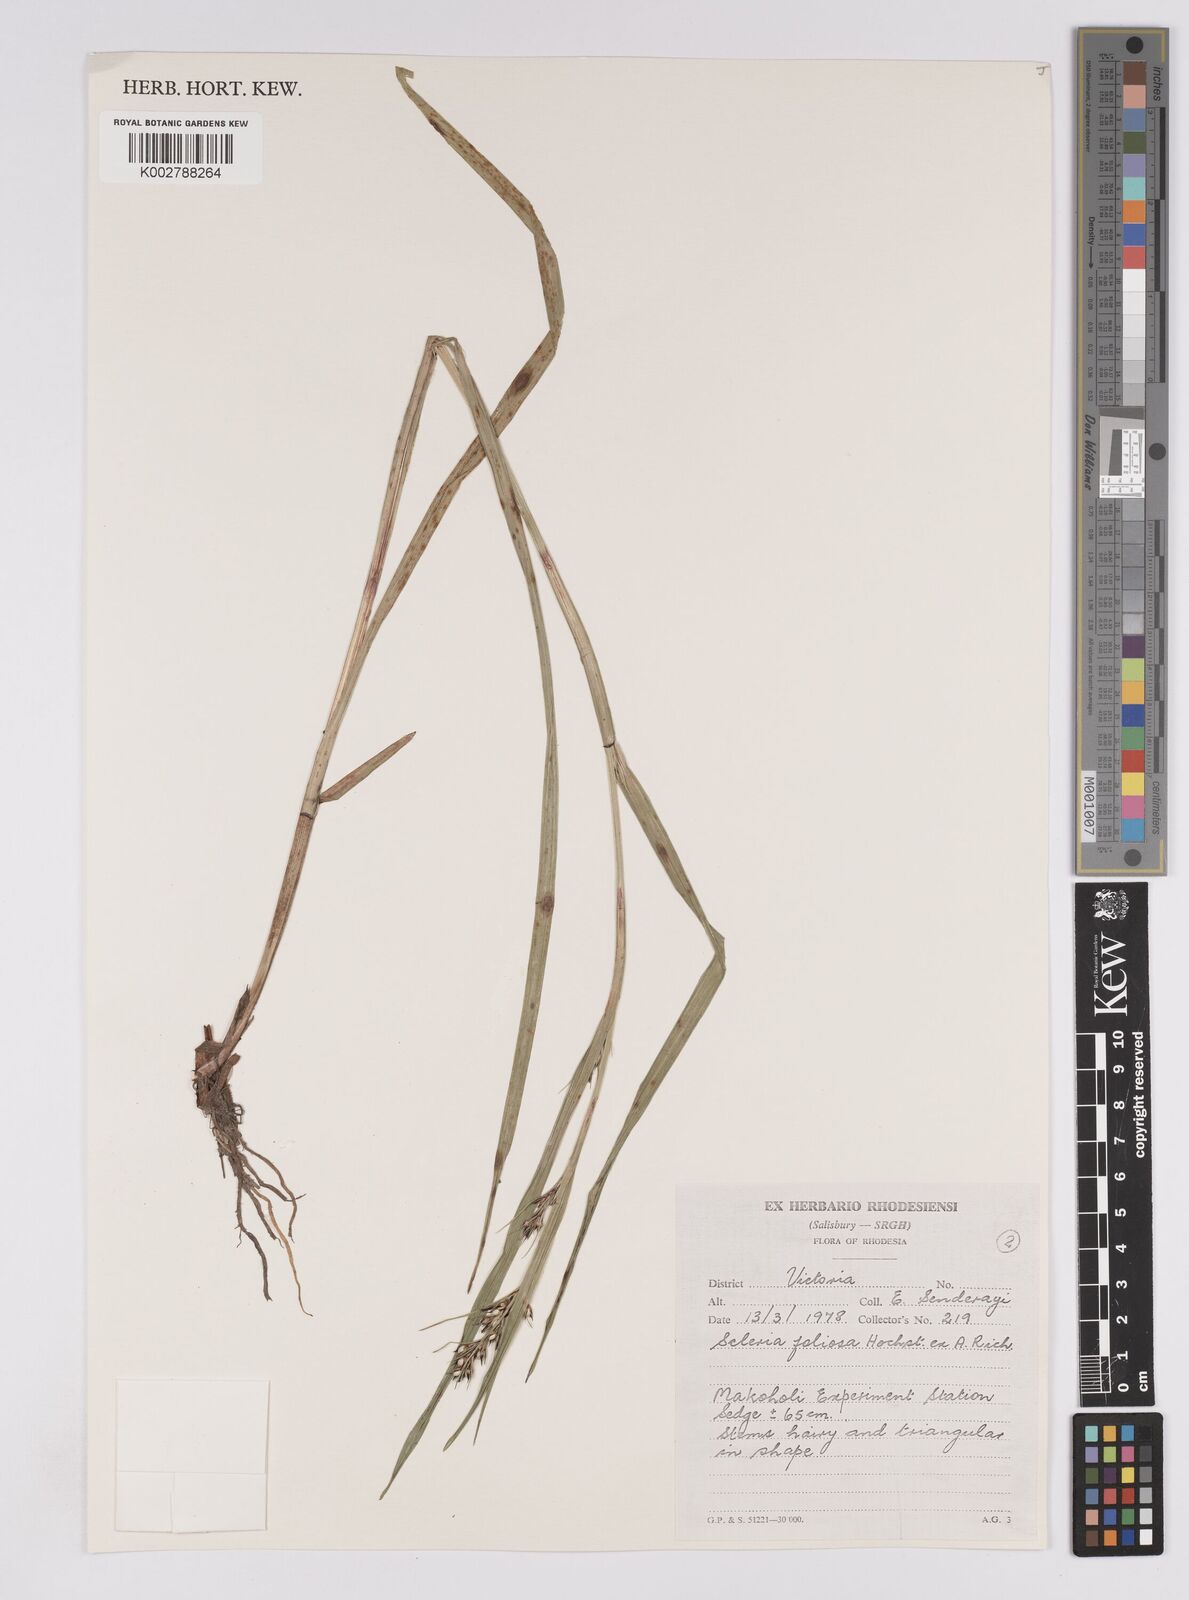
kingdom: Plantae
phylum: Tracheophyta
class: Liliopsida
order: Poales
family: Cyperaceae
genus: Scleria
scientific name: Scleria foliosa
